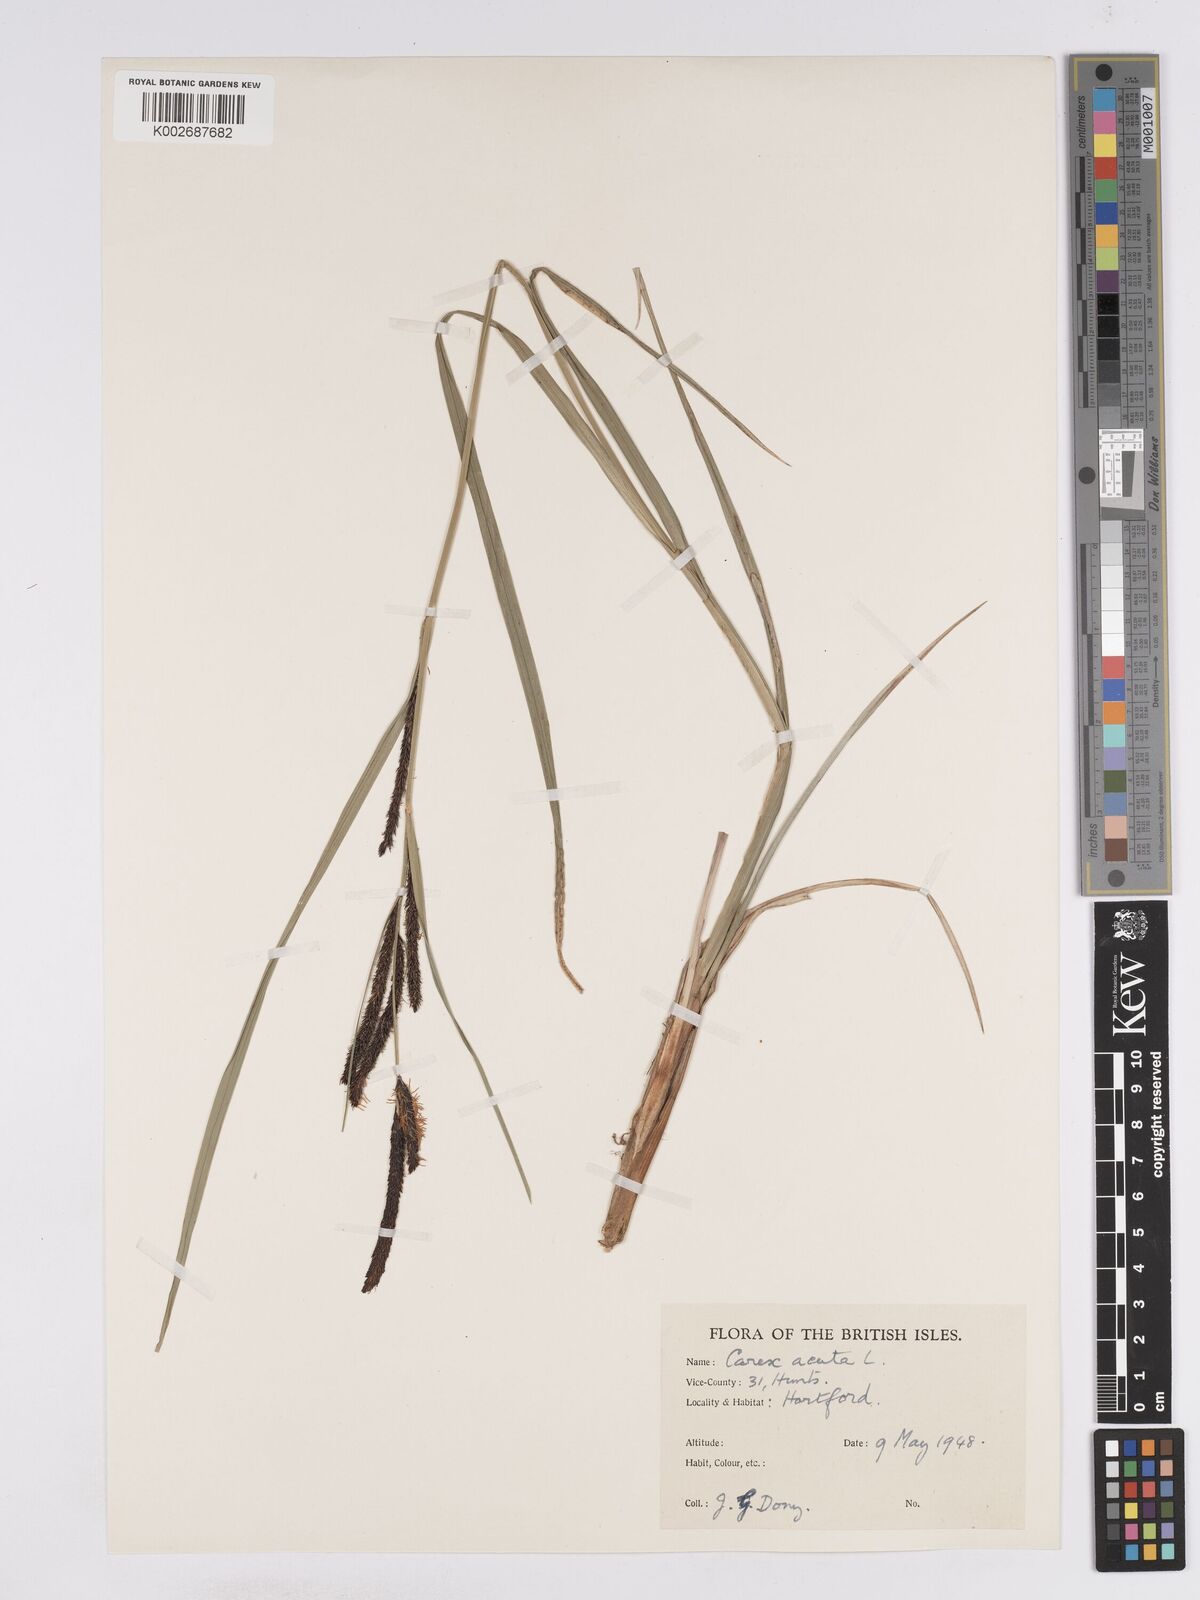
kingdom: Plantae
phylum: Tracheophyta
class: Liliopsida
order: Poales
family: Cyperaceae
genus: Carex
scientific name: Carex acuta
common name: Slender tufted-sedge
